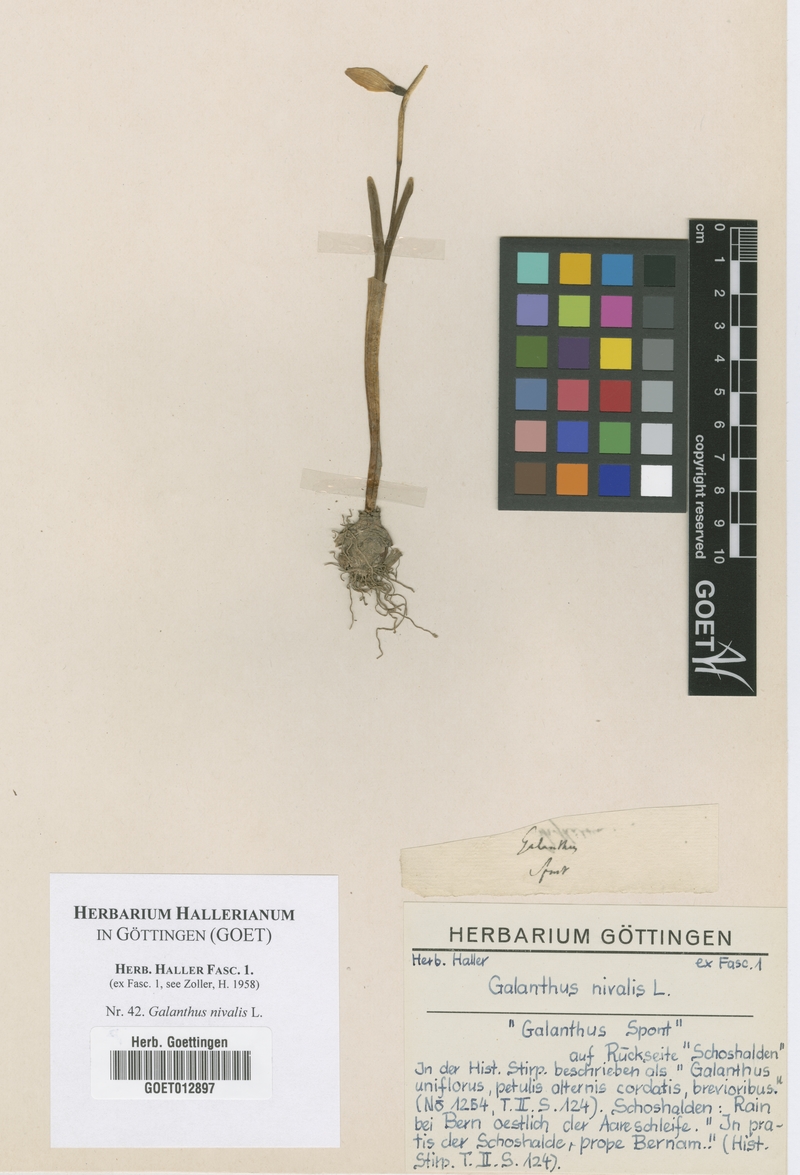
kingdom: Plantae
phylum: Tracheophyta
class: Liliopsida
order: Asparagales
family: Amaryllidaceae
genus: Galanthus
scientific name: Galanthus nivalis
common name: Snowdrop
